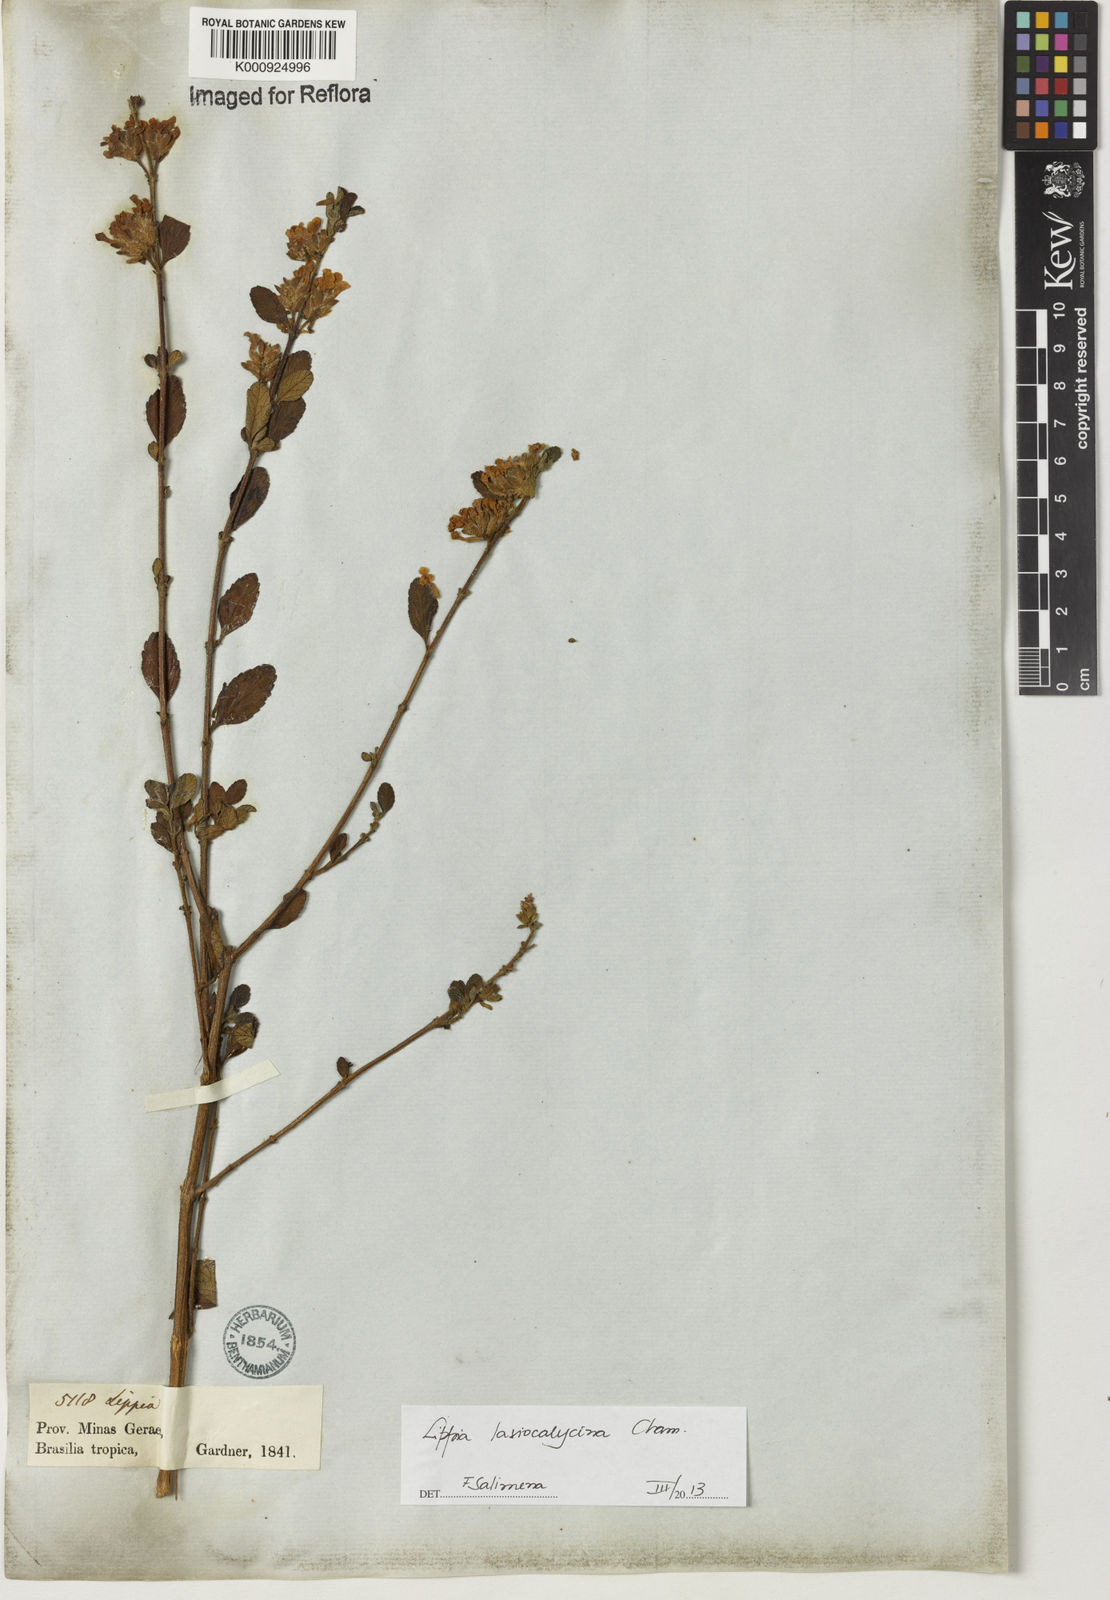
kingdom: Plantae
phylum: Tracheophyta
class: Magnoliopsida
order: Lamiales
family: Verbenaceae
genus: Lippia
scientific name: Lippia lasiocalycina
